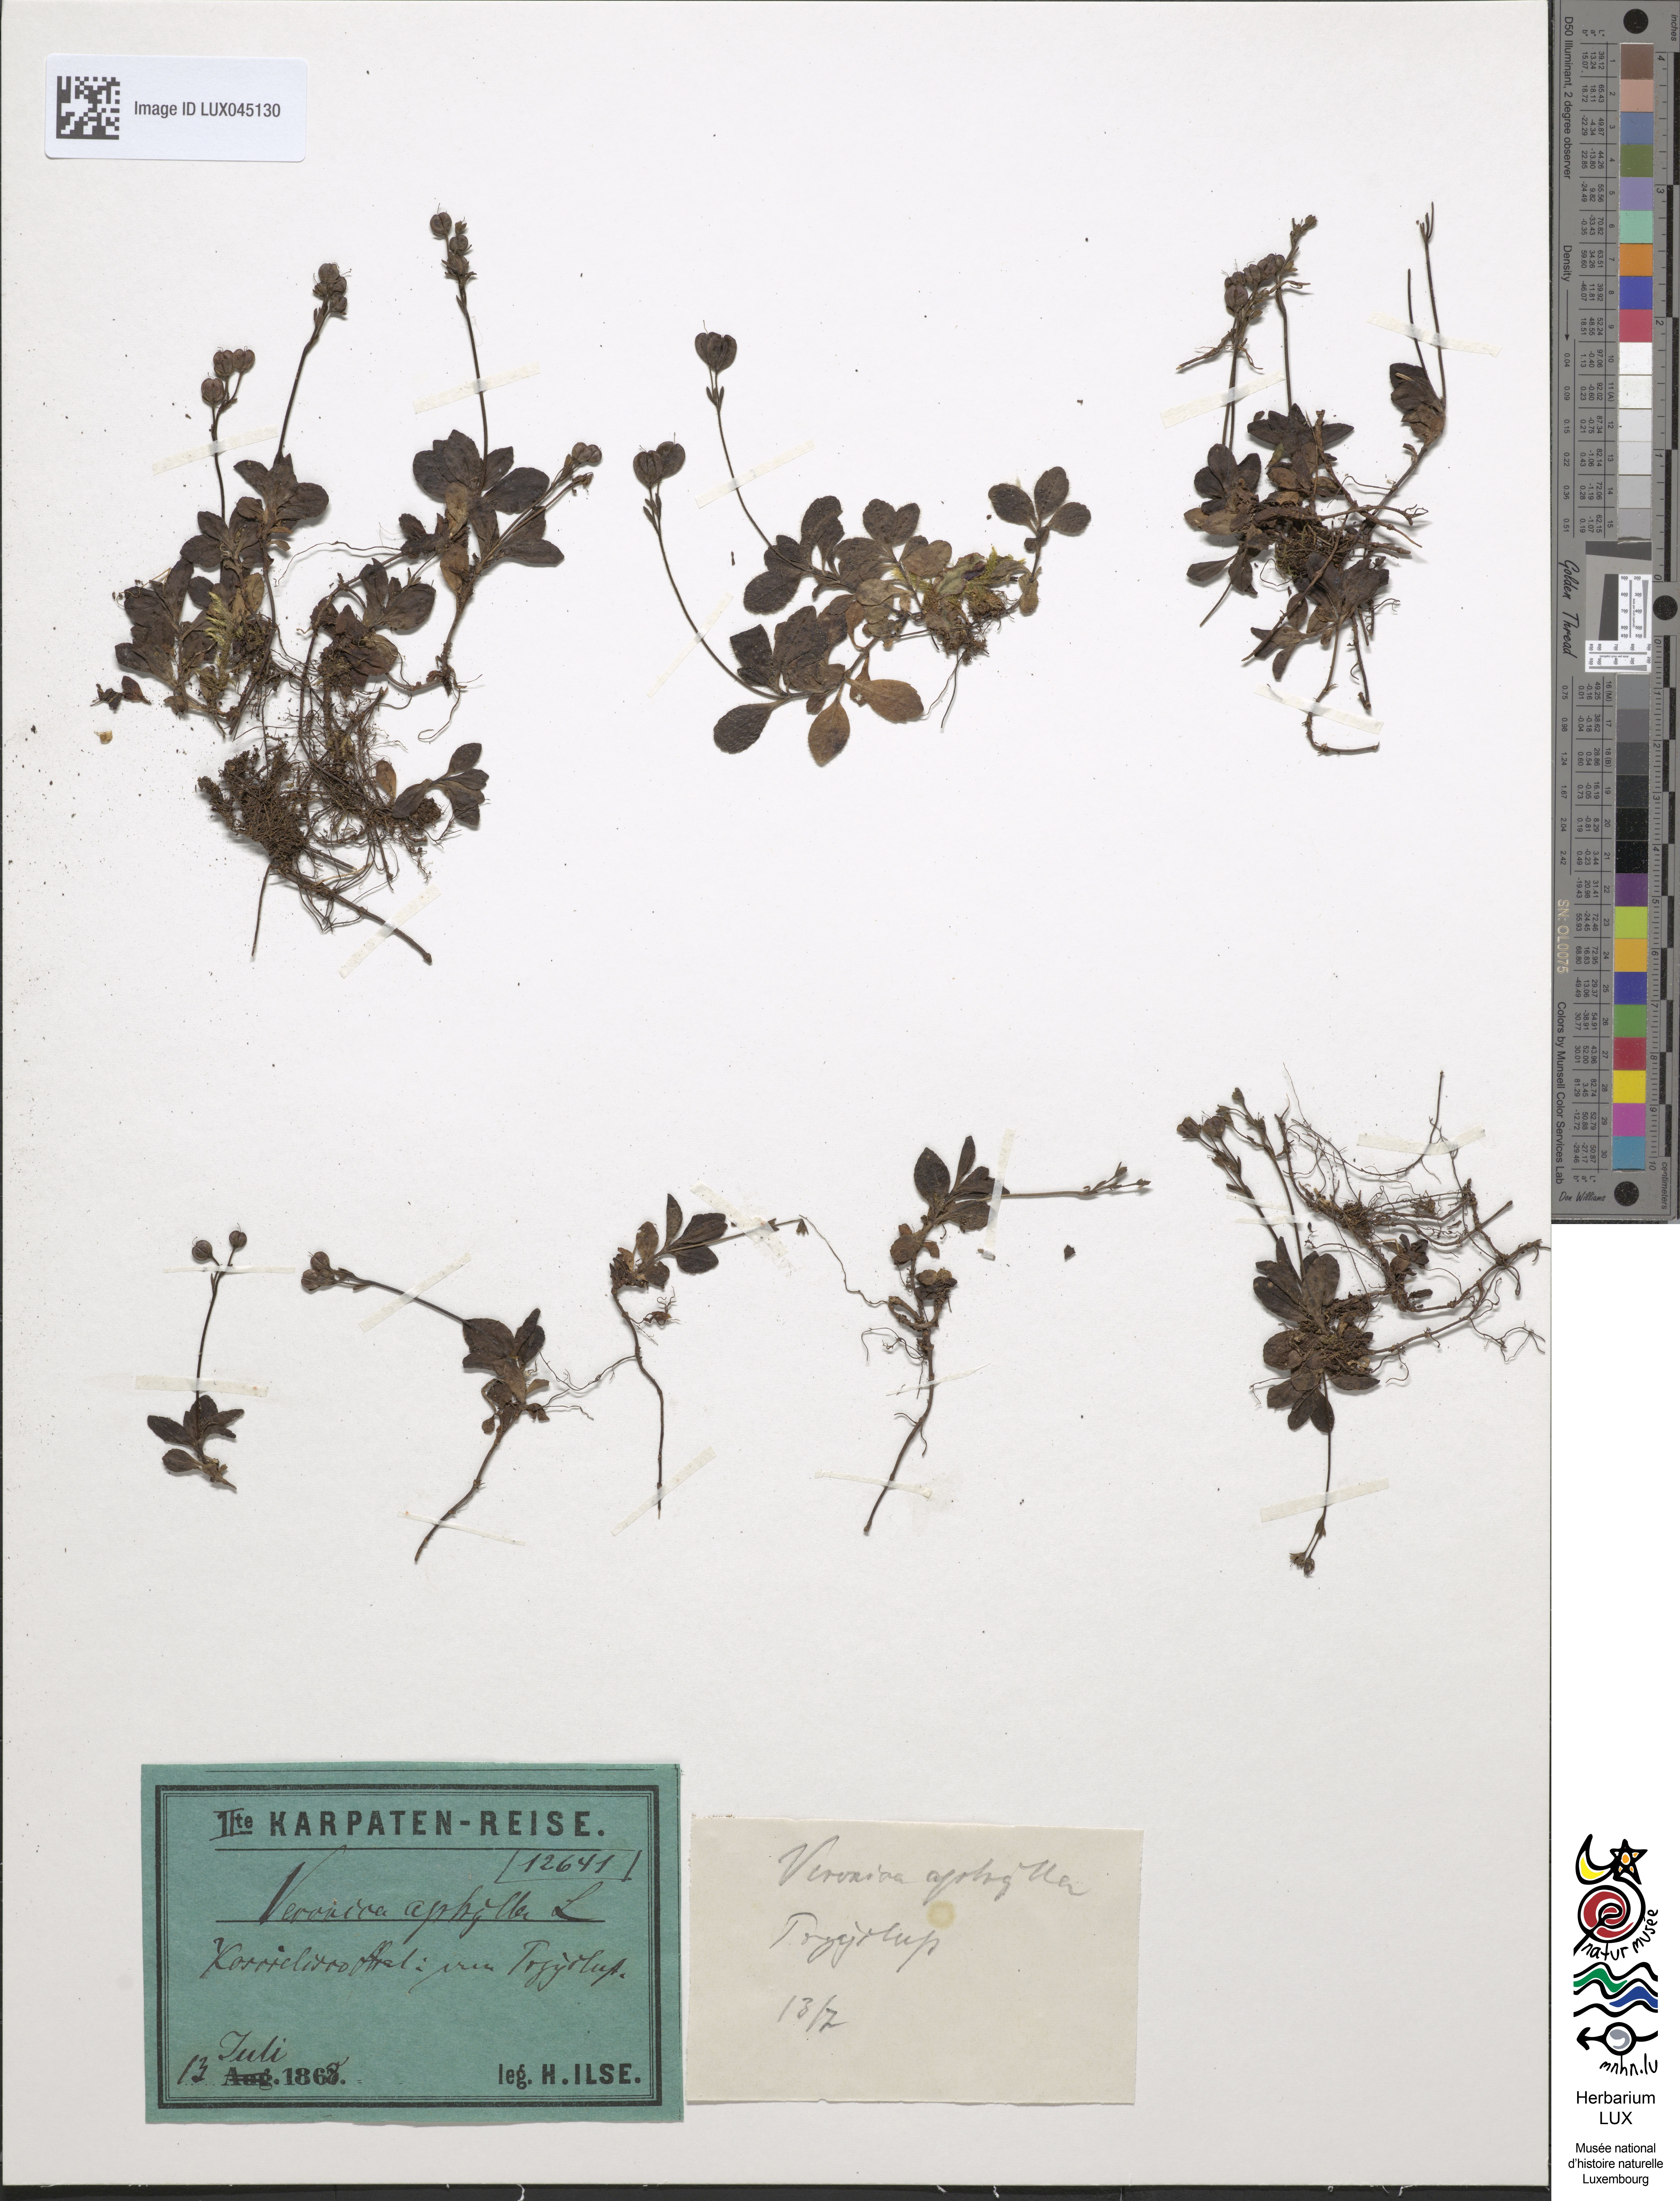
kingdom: Plantae
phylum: Tracheophyta
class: Magnoliopsida
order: Lamiales
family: Plantaginaceae
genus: Veronica
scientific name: Veronica aphylla
